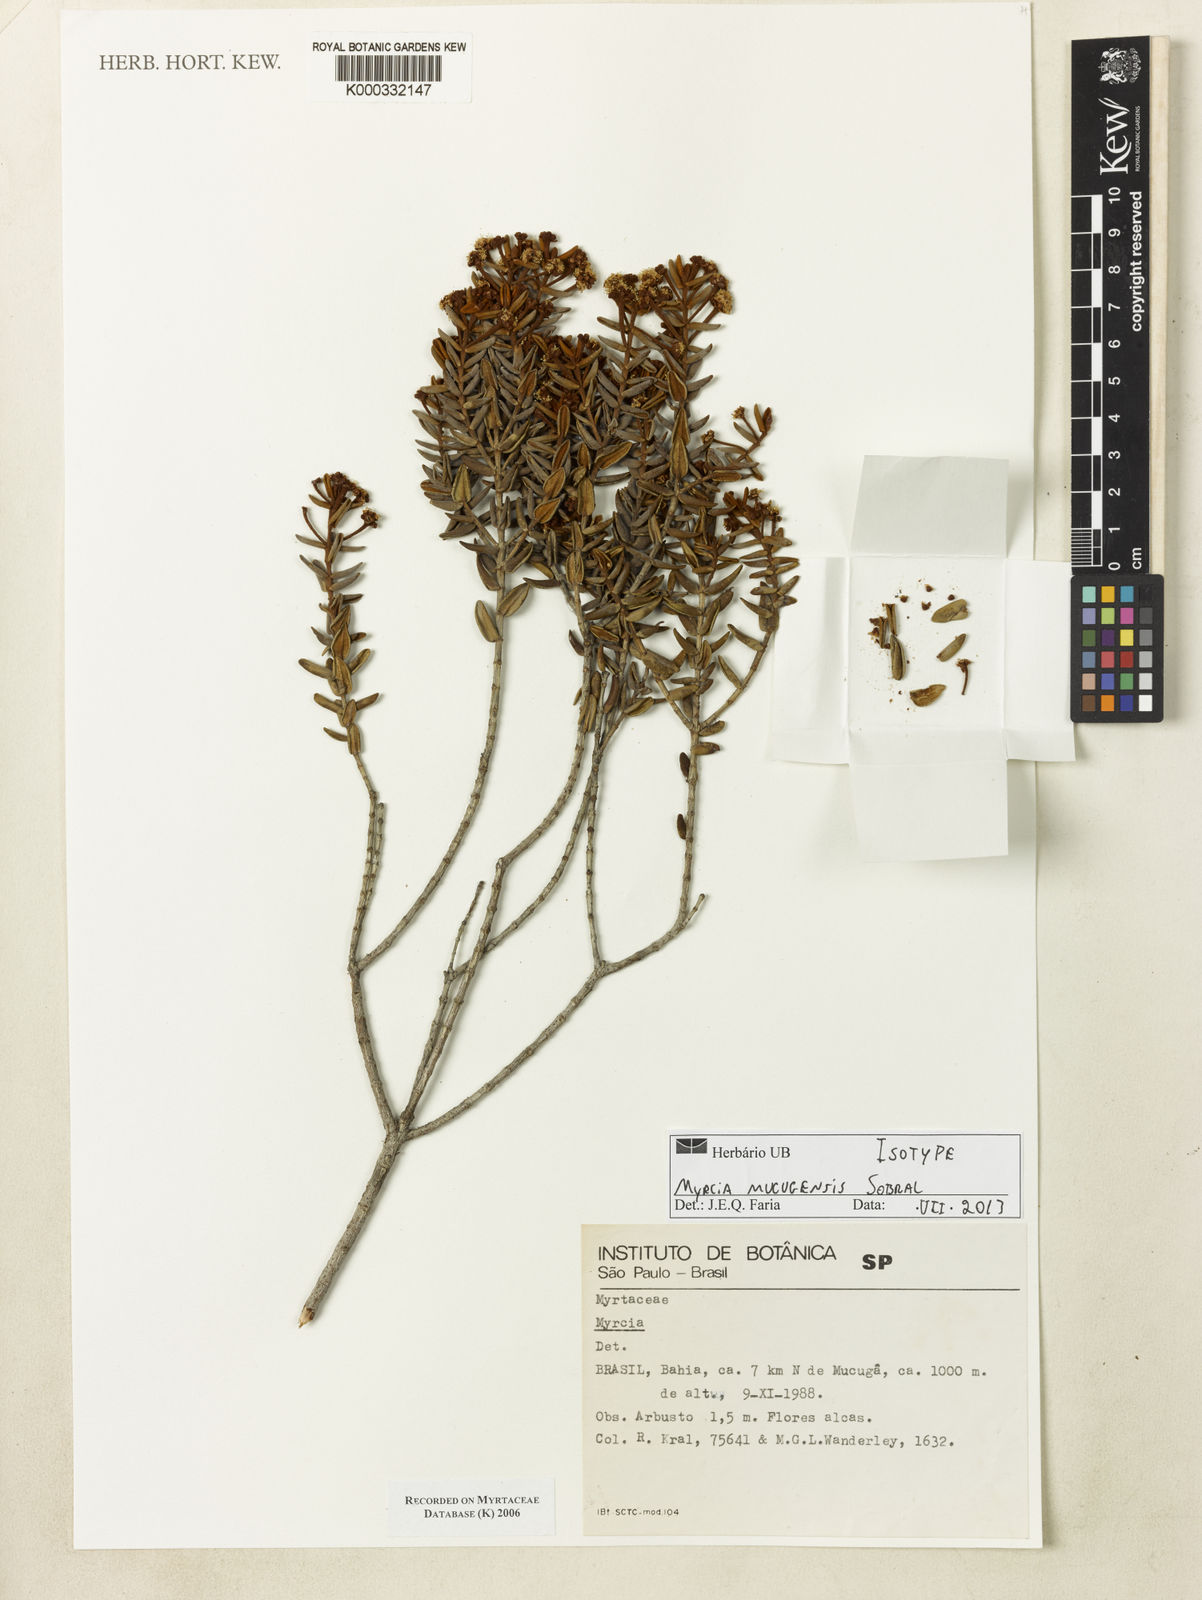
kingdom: Plantae
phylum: Tracheophyta
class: Magnoliopsida
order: Myrtales
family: Myrtaceae
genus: Myrcia
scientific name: Myrcia mucugensis
